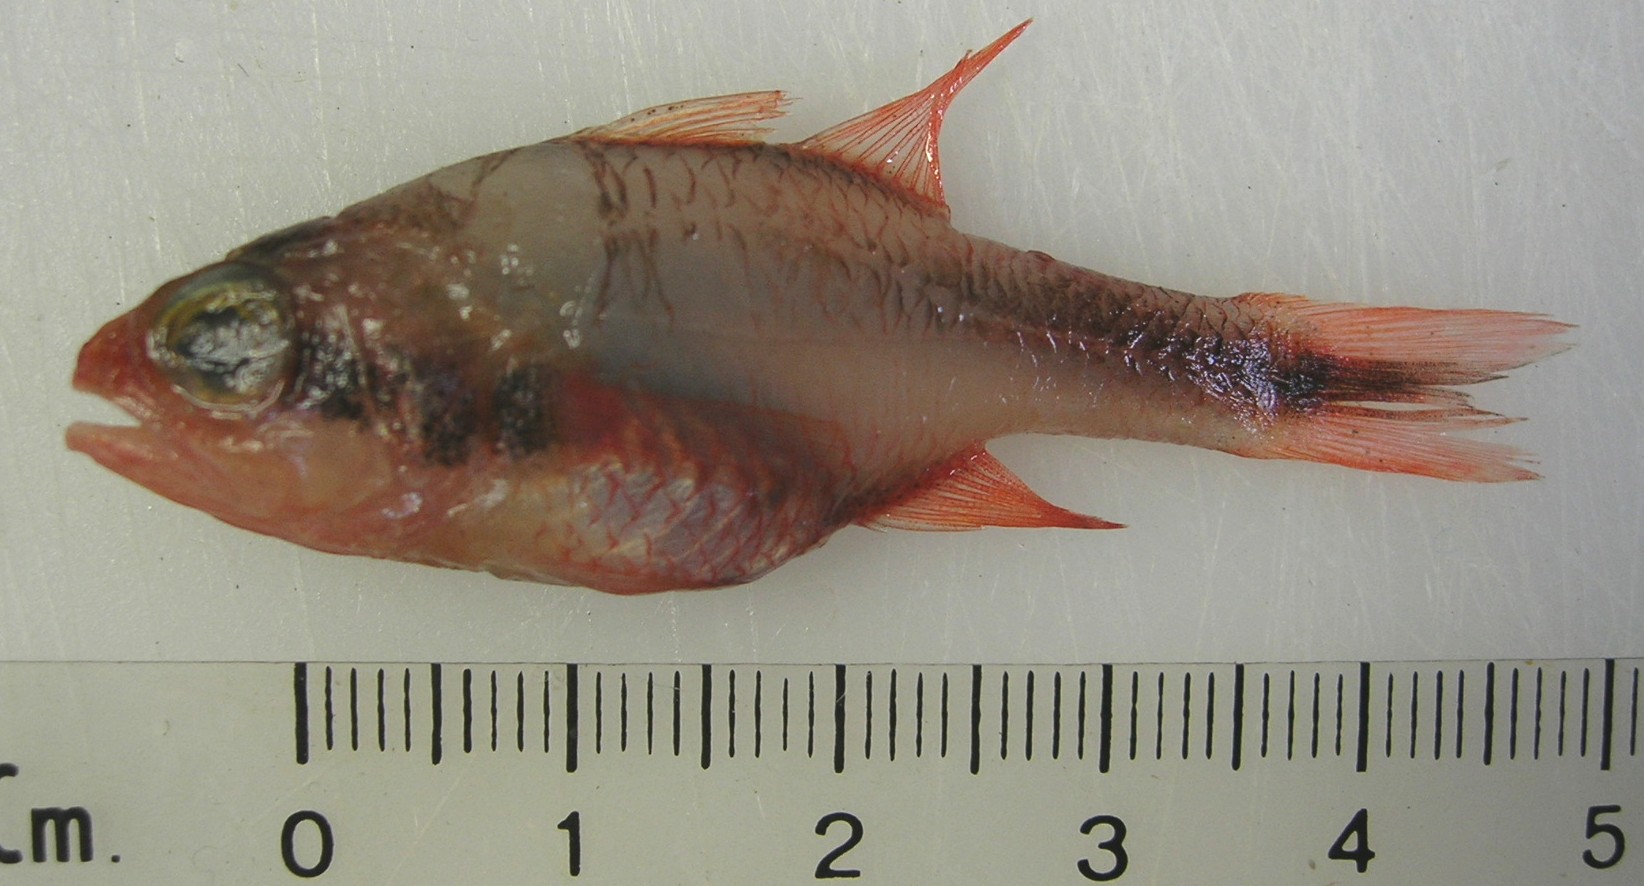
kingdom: Animalia
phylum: Chordata
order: Perciformes
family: Apogonidae
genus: Apogon
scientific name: Apogon semiornatus
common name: Threeband cardinalfish
